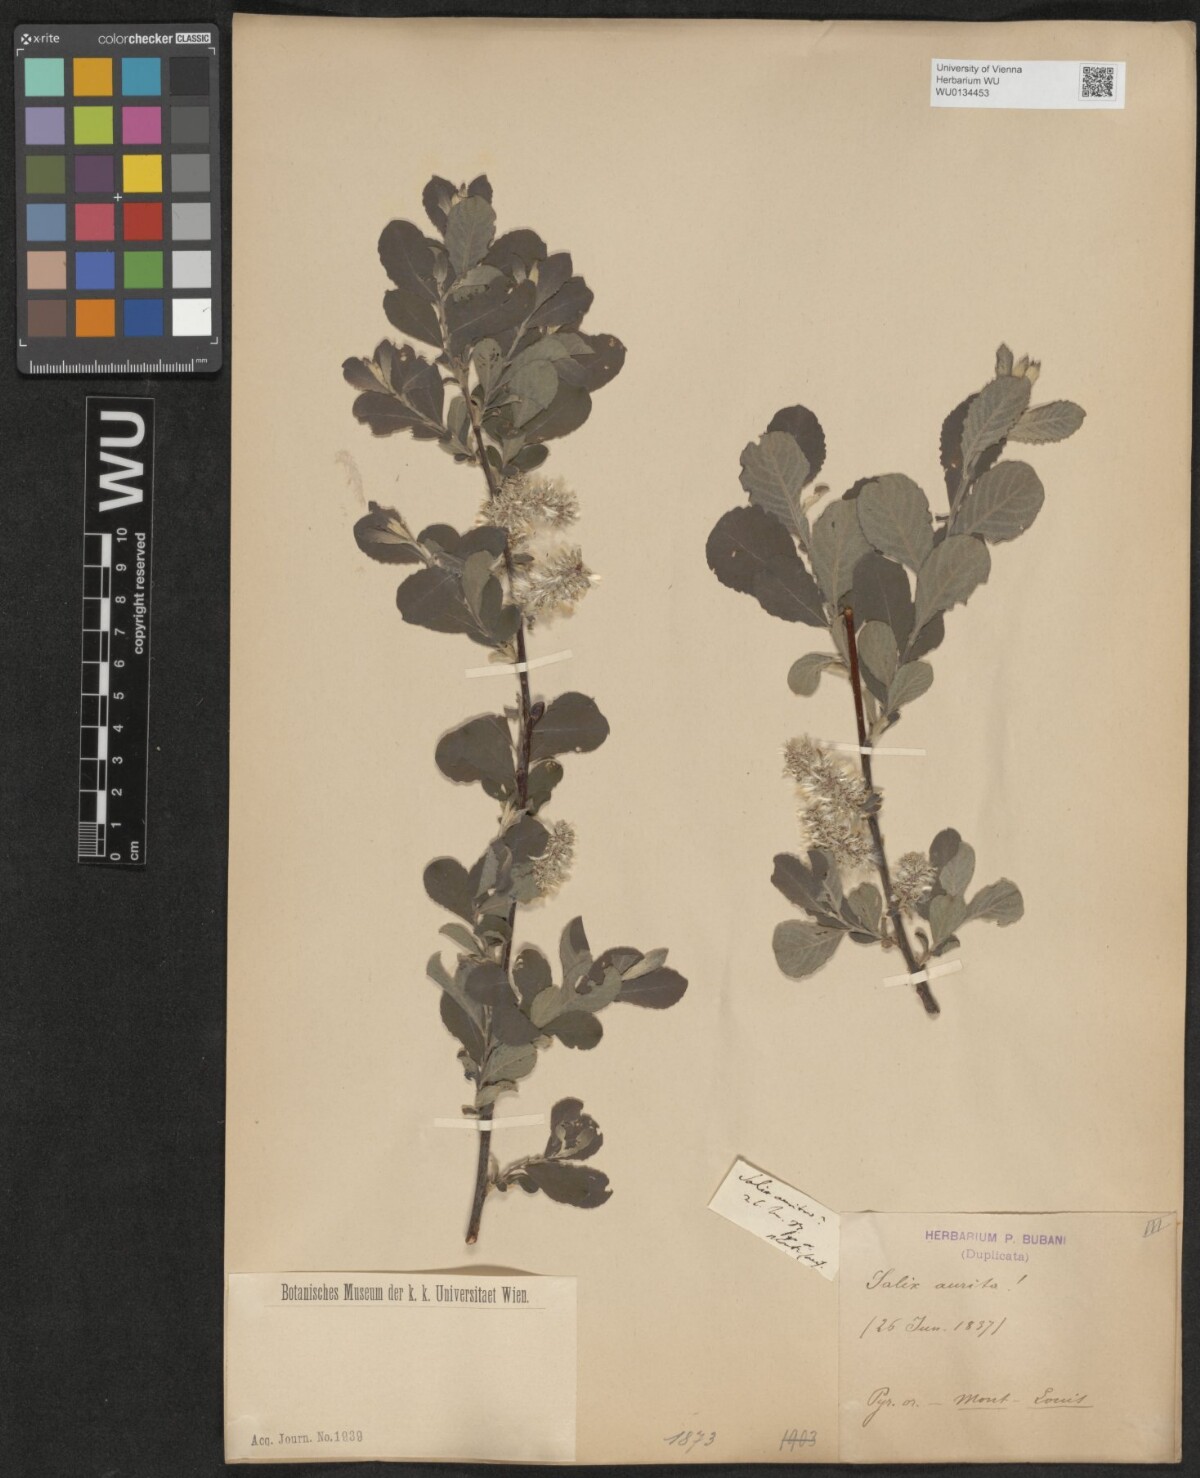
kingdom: Plantae
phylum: Tracheophyta
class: Magnoliopsida
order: Malpighiales
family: Salicaceae
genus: Salix
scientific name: Salix aurita
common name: Eared willow
